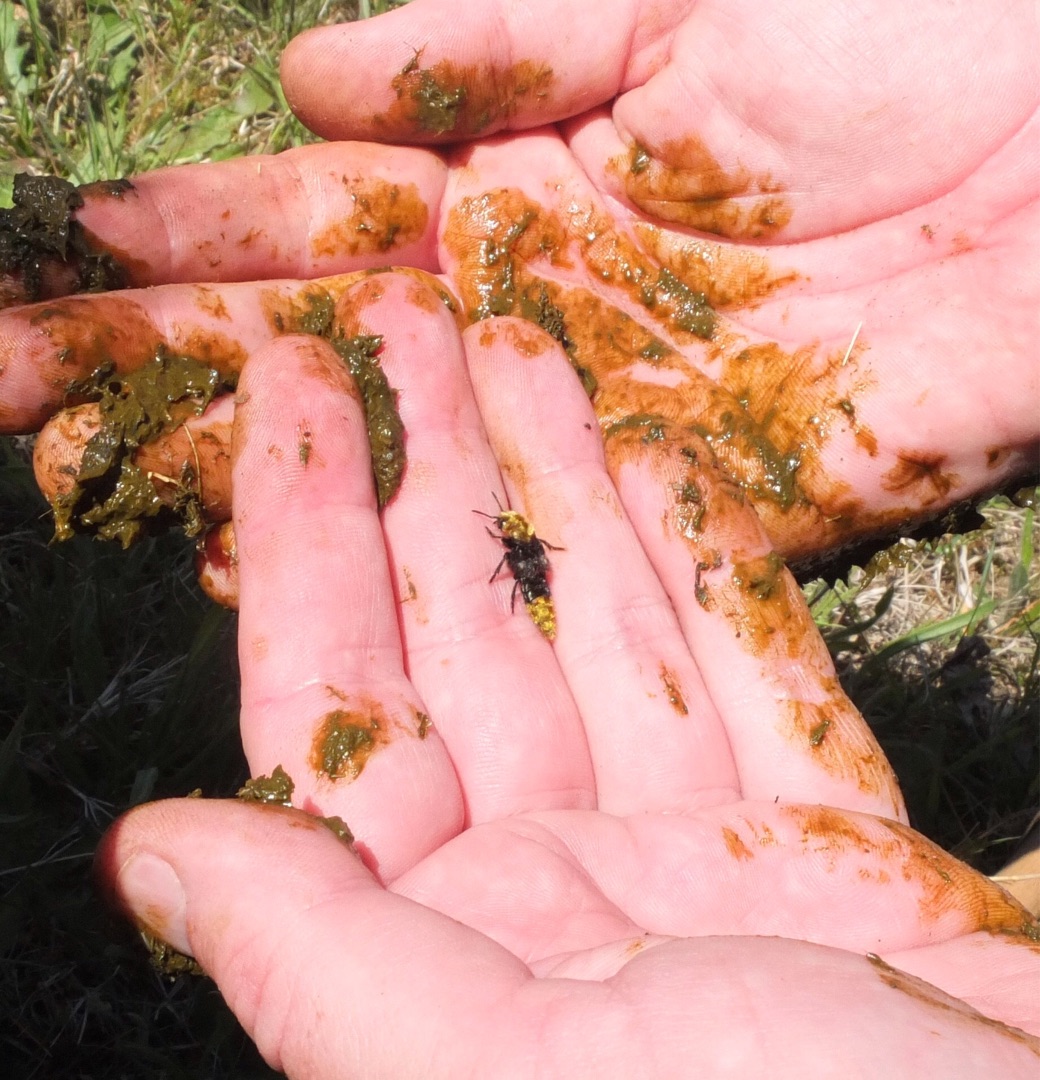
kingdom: Animalia
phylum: Arthropoda
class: Insecta
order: Coleoptera
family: Staphylinidae
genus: Emus
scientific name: Emus hirtus
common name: Humlerovbille
